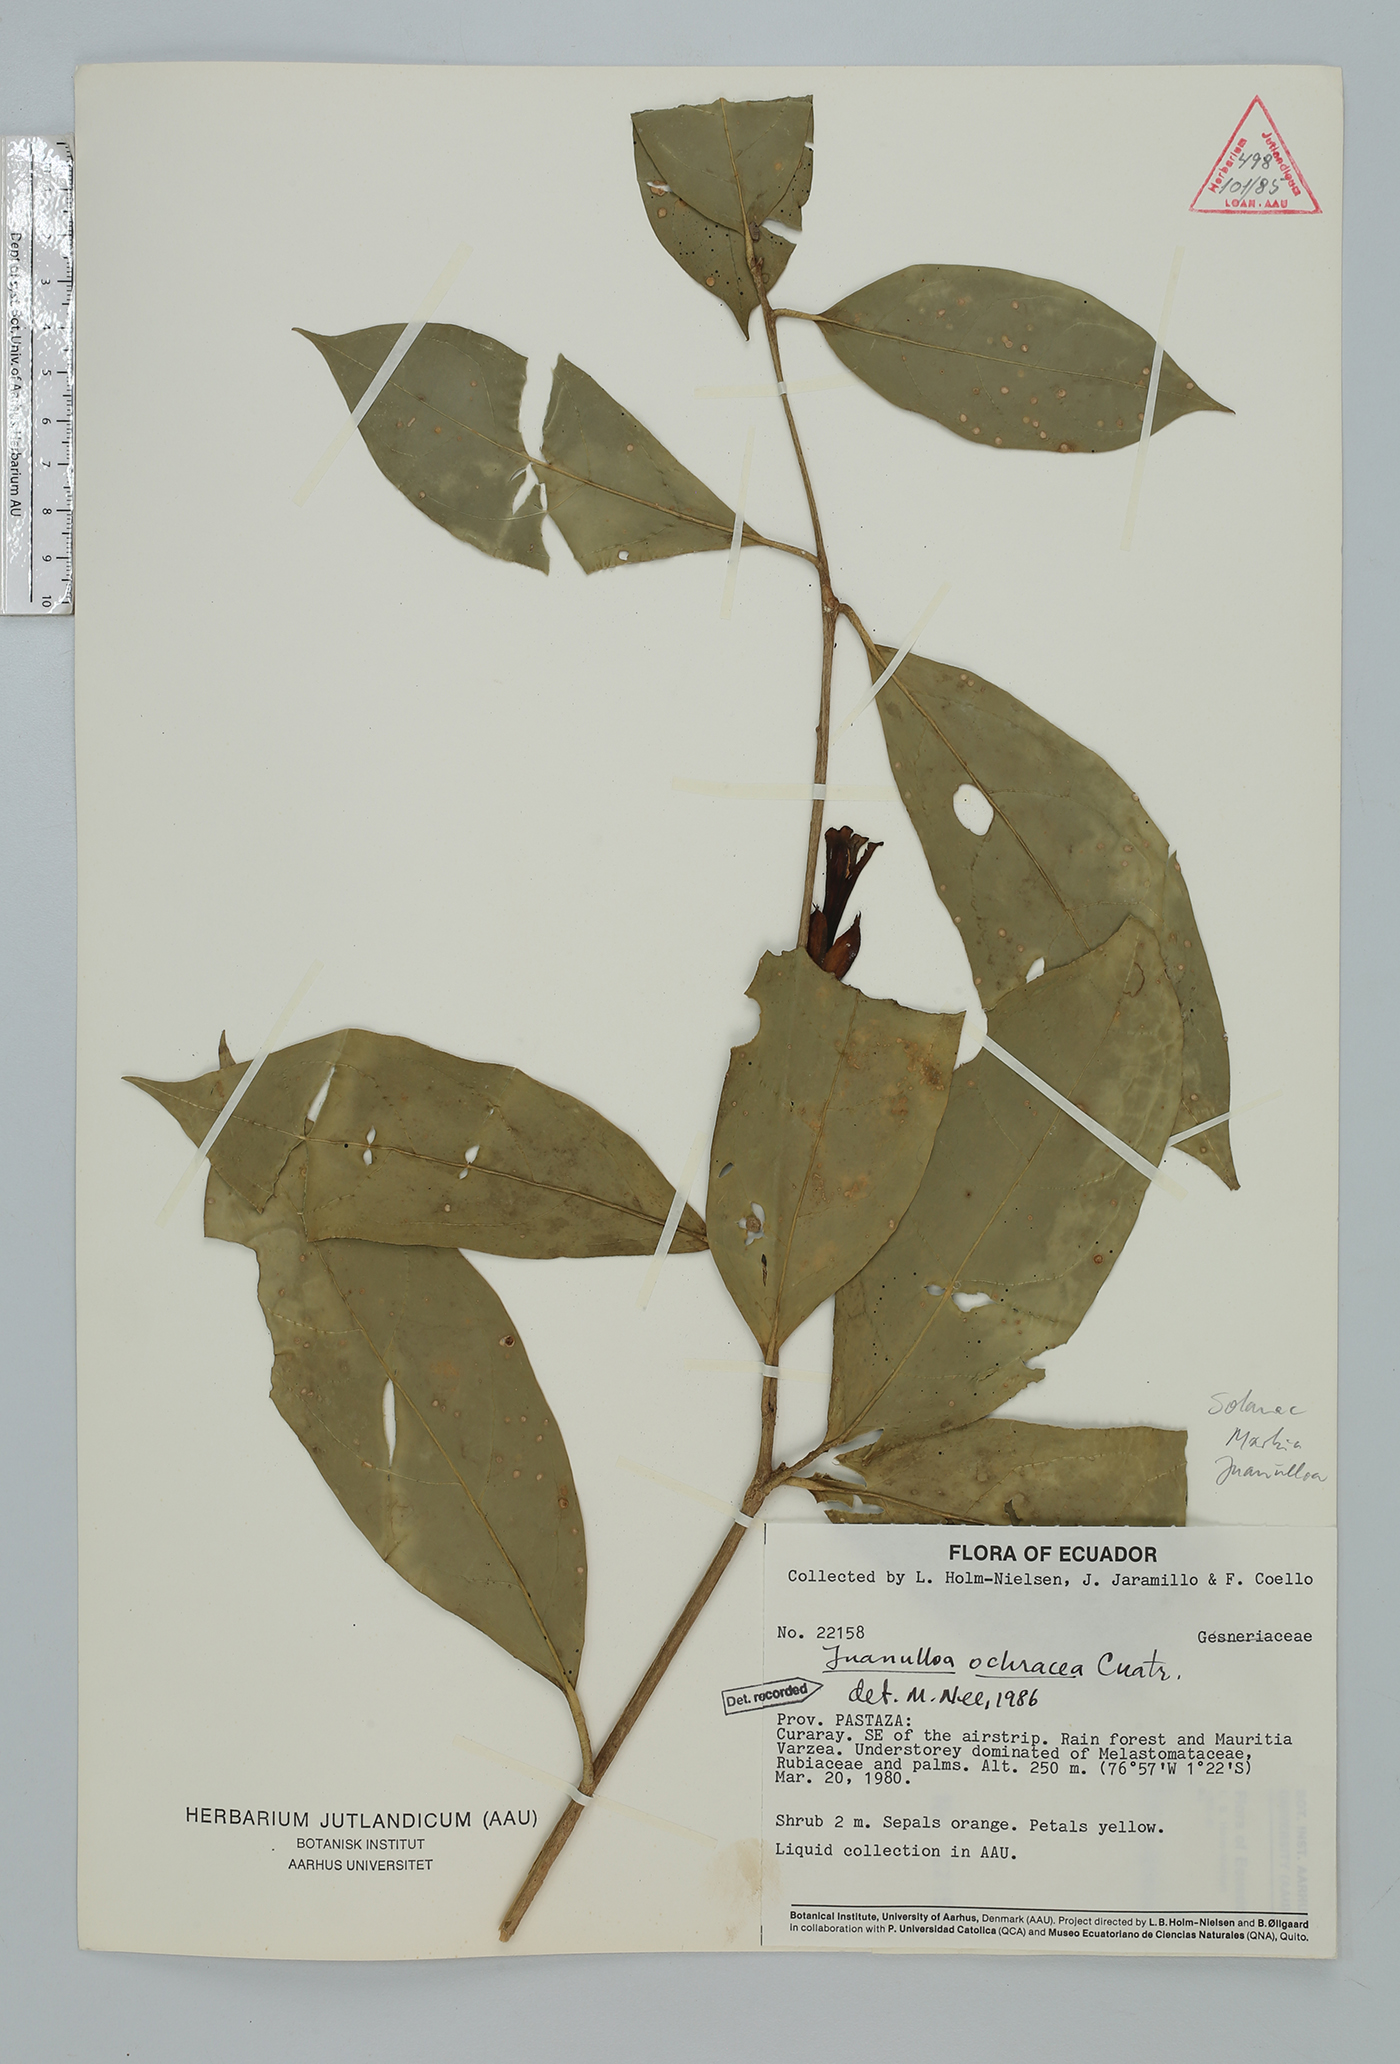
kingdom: Plantae
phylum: Tracheophyta
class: Magnoliopsida
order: Solanales
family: Solanaceae
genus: Hawkesiophyton
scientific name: Hawkesiophyton ochraceum
